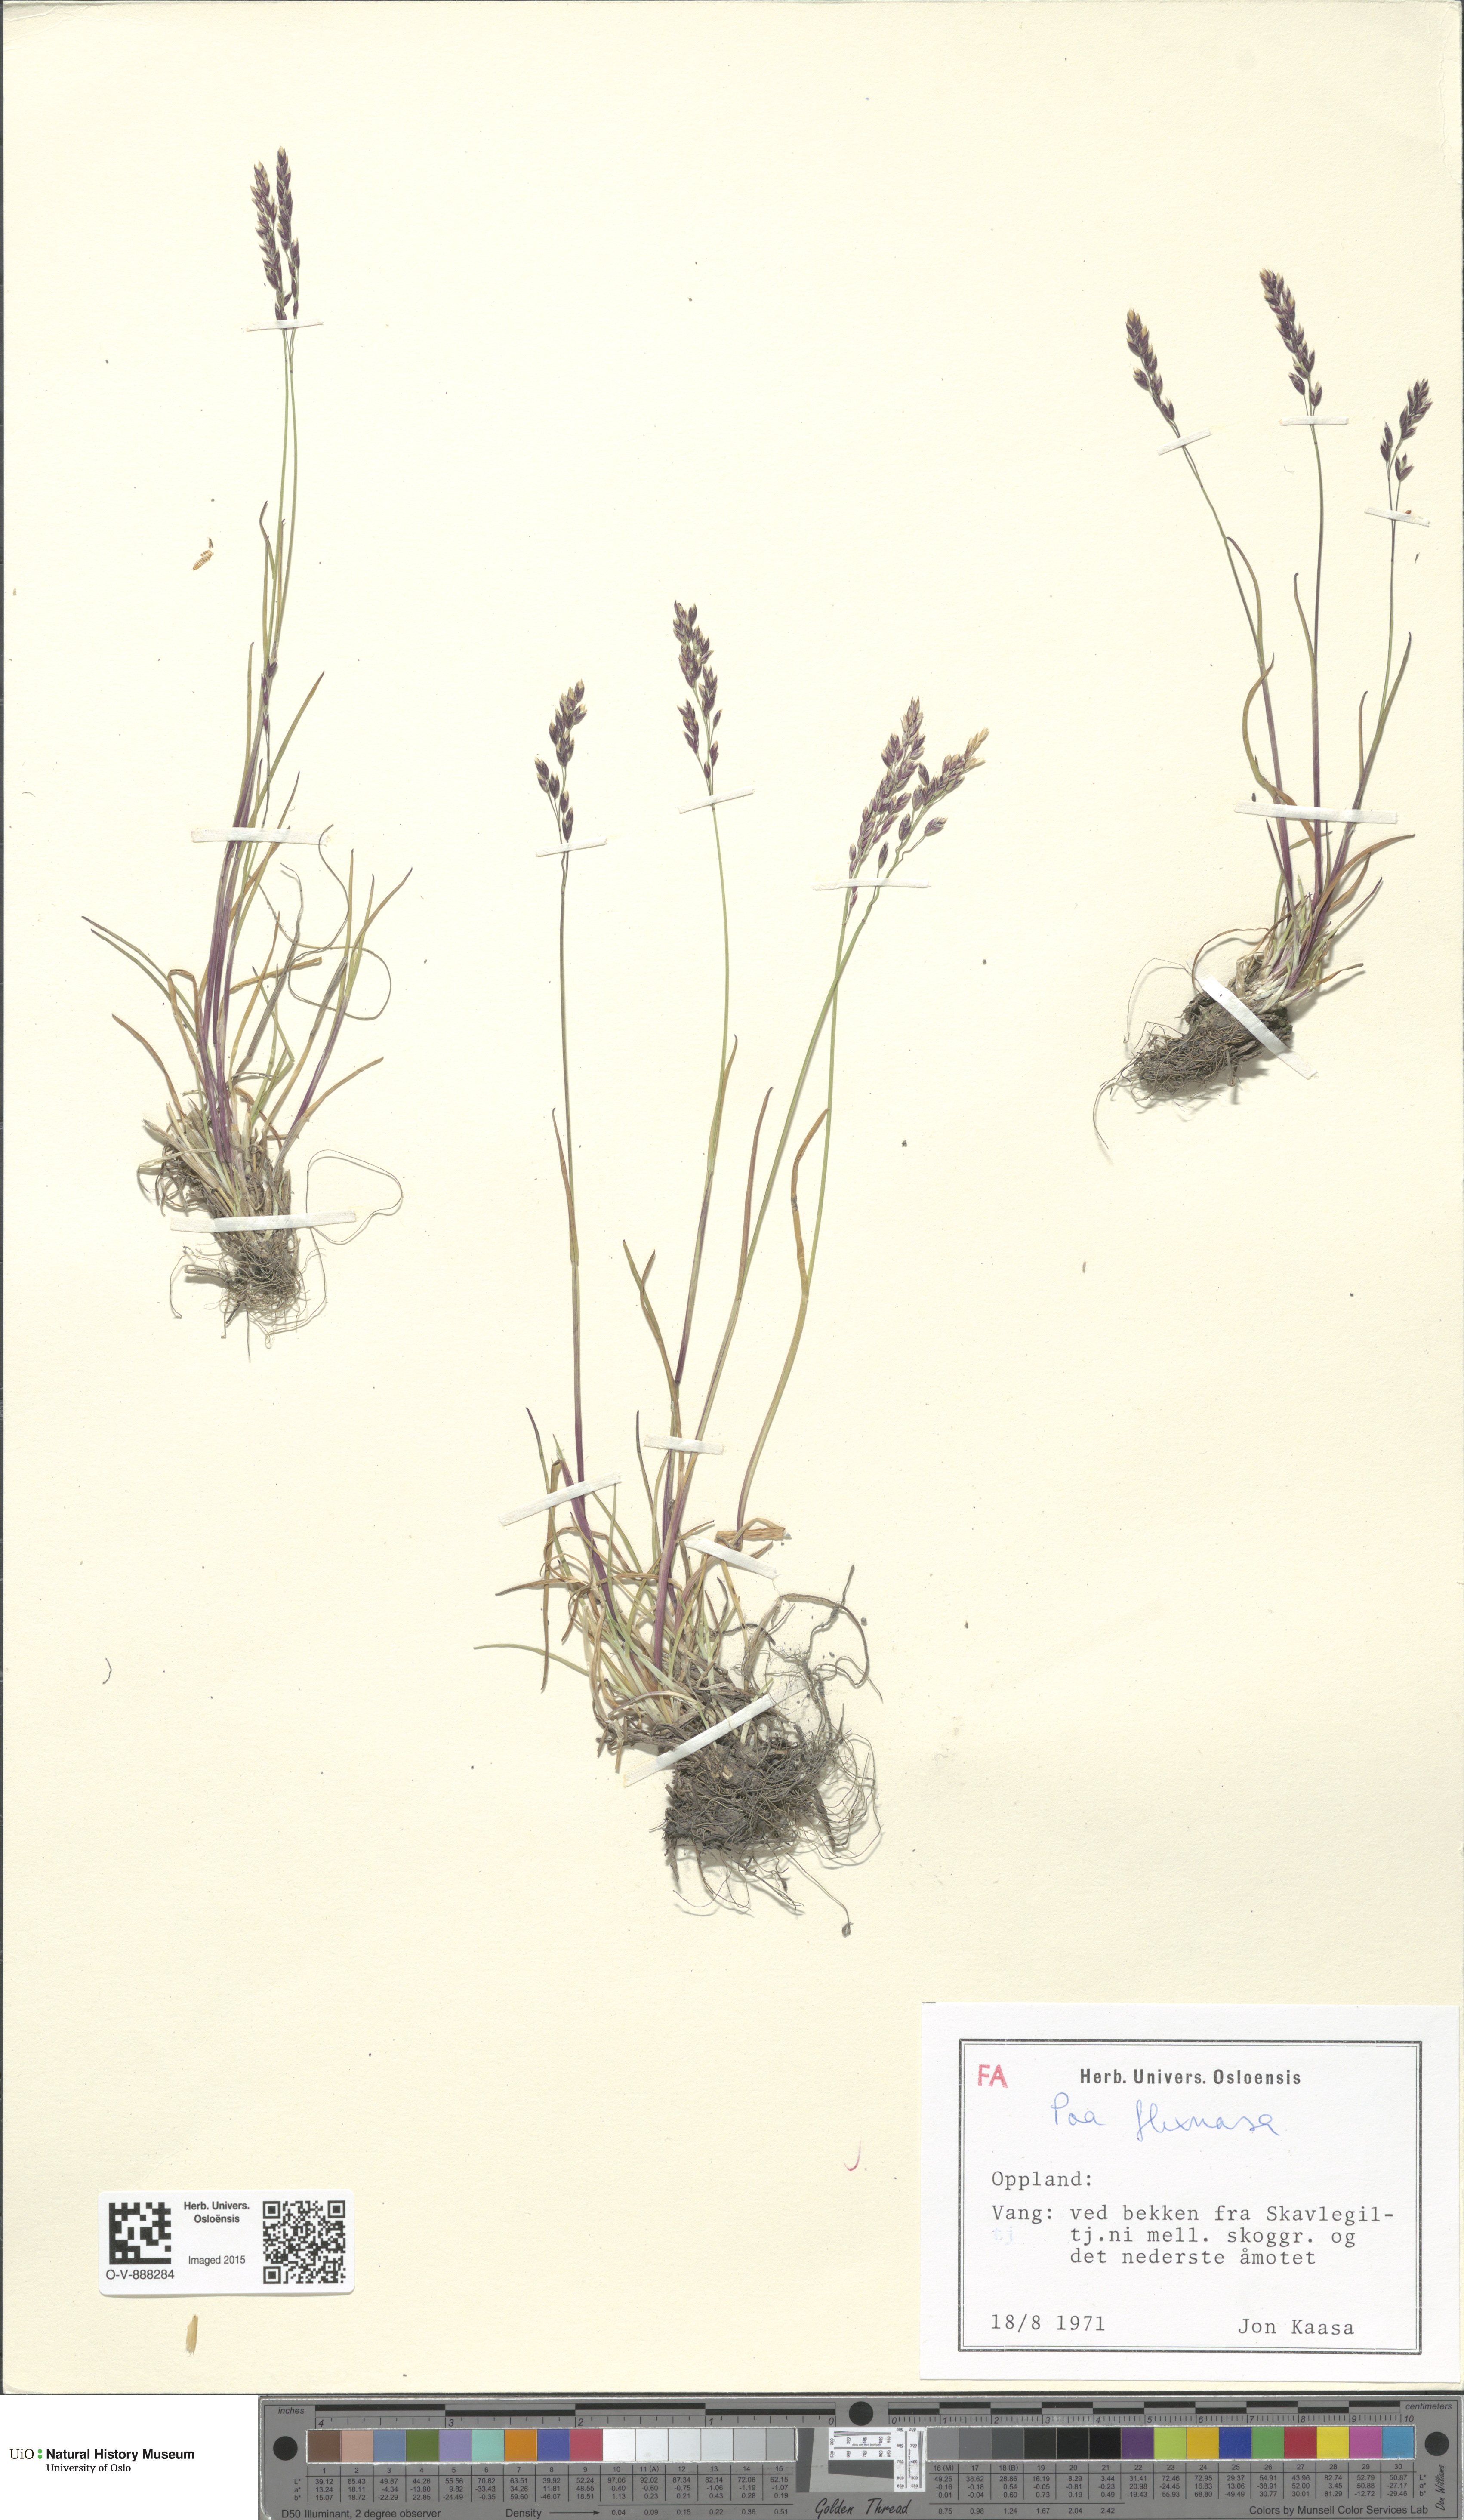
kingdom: Plantae
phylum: Tracheophyta
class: Liliopsida
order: Poales
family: Poaceae
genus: Poa
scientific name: Poa flexuosa
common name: Wavy meadow-grass
